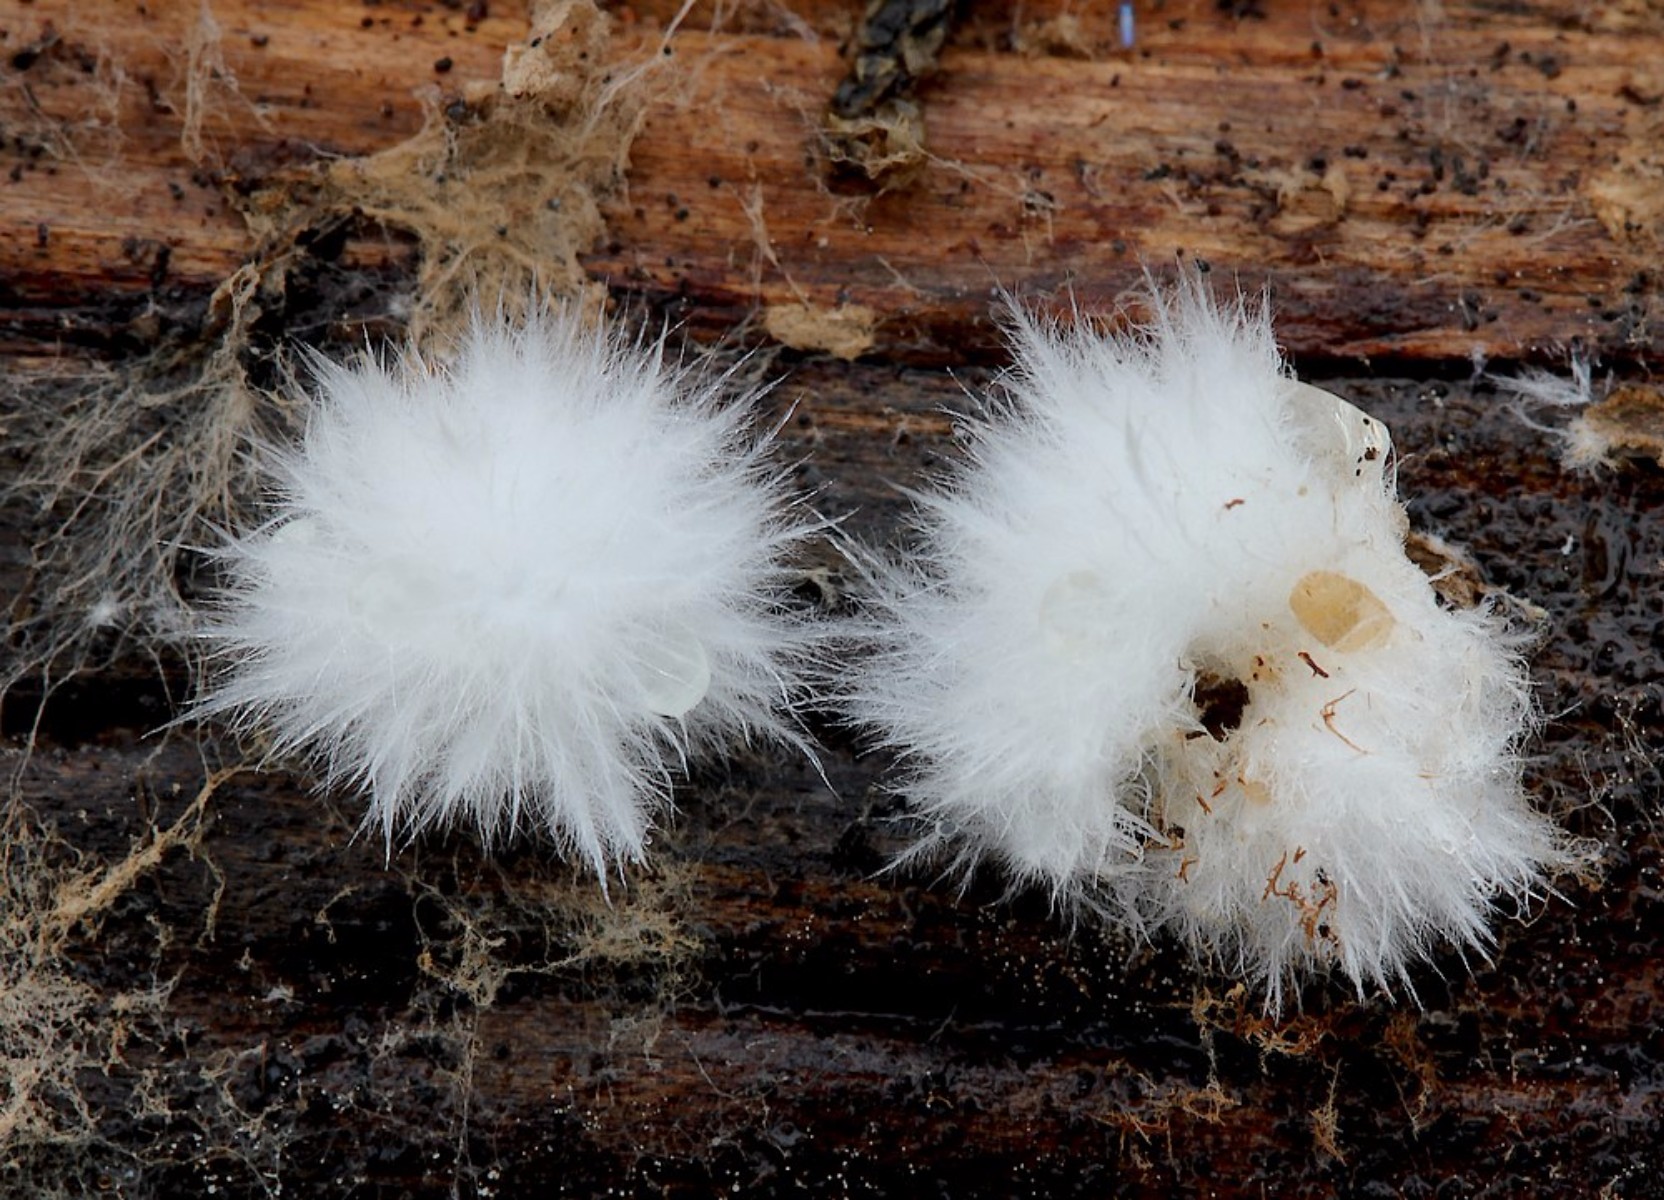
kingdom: Fungi
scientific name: Fungi
